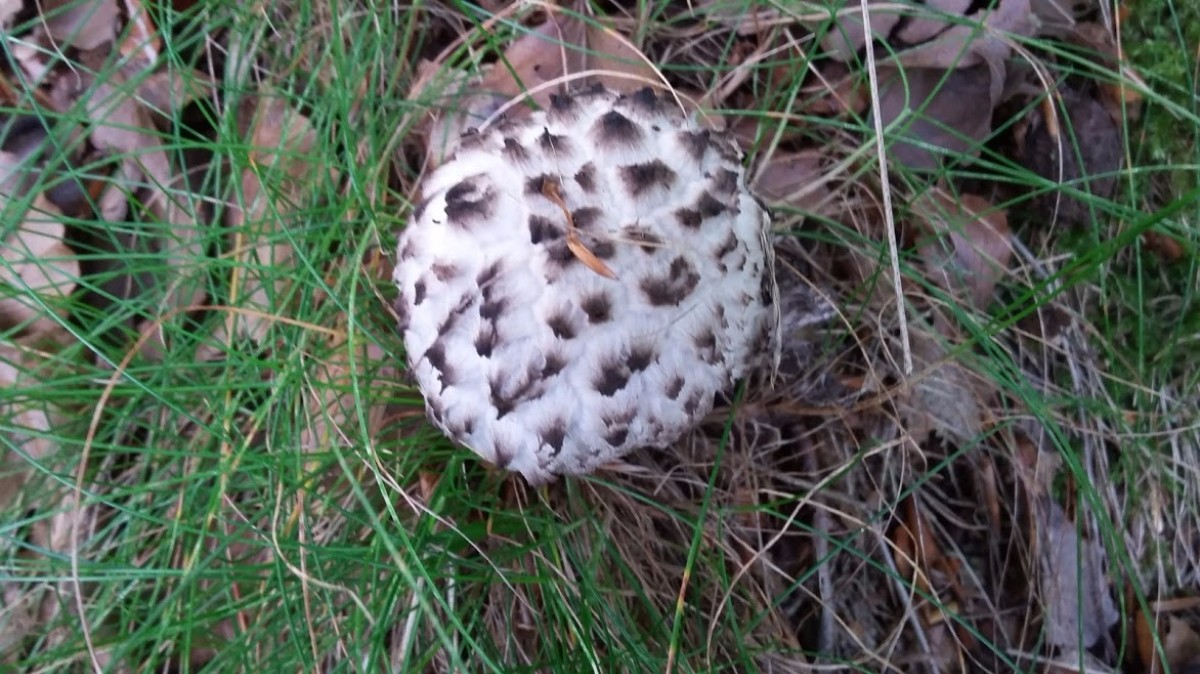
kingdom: Fungi
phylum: Basidiomycota
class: Agaricomycetes
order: Boletales
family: Boletaceae
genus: Strobilomyces
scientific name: Strobilomyces strobilaceus
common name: koglerørhat
